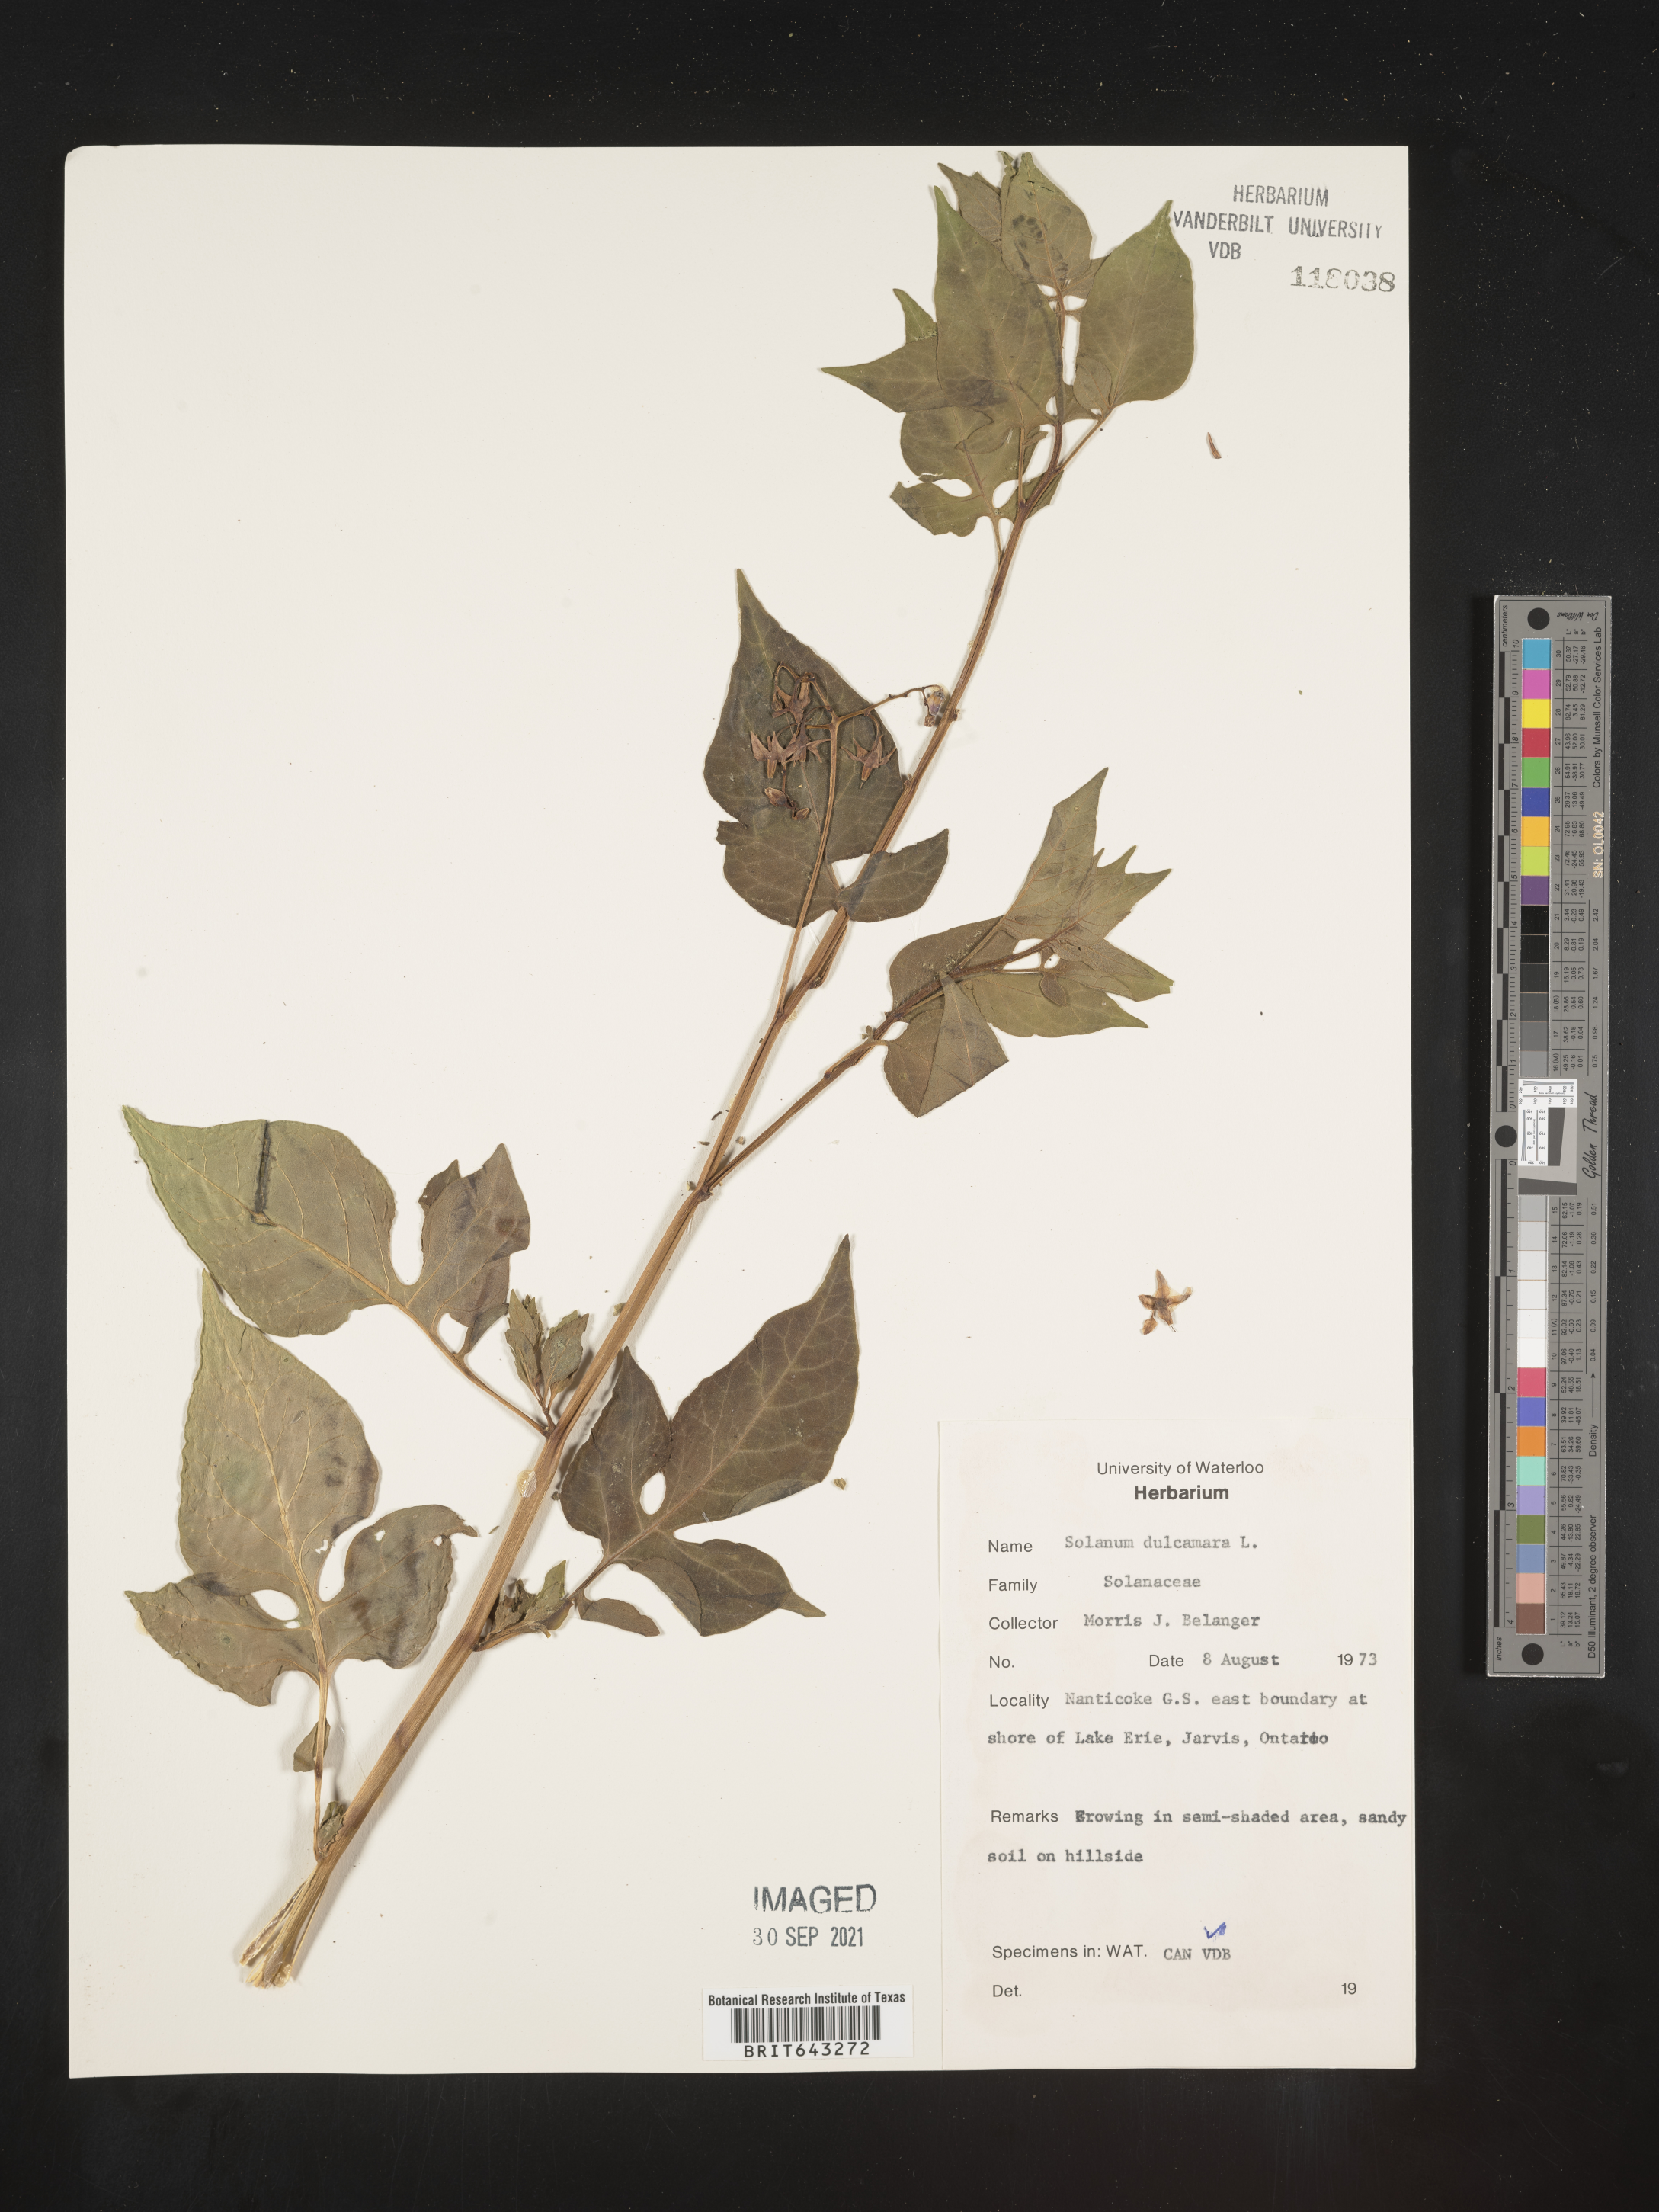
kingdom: Plantae
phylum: Tracheophyta
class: Magnoliopsida
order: Solanales
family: Solanaceae
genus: Solanum
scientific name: Solanum
